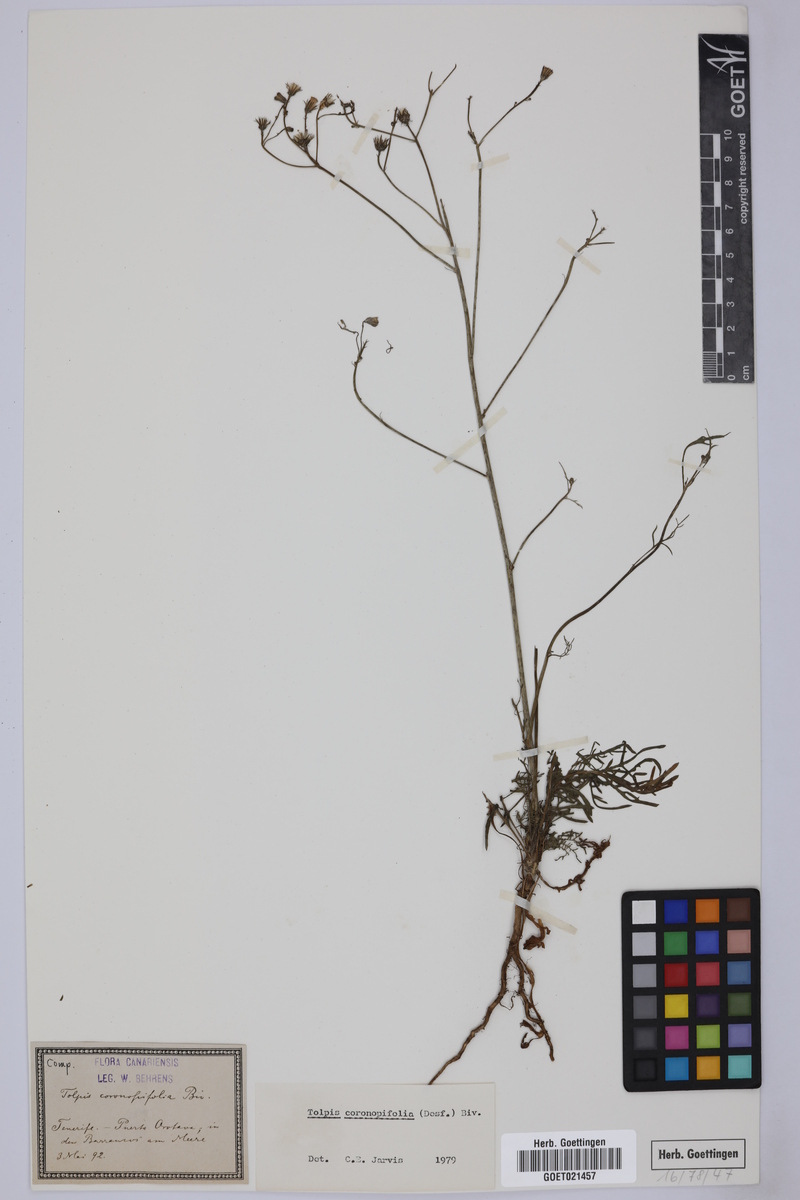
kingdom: Plantae
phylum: Tracheophyta
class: Magnoliopsida
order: Asterales
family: Asteraceae
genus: Tolpis
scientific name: Tolpis coronopifolia
